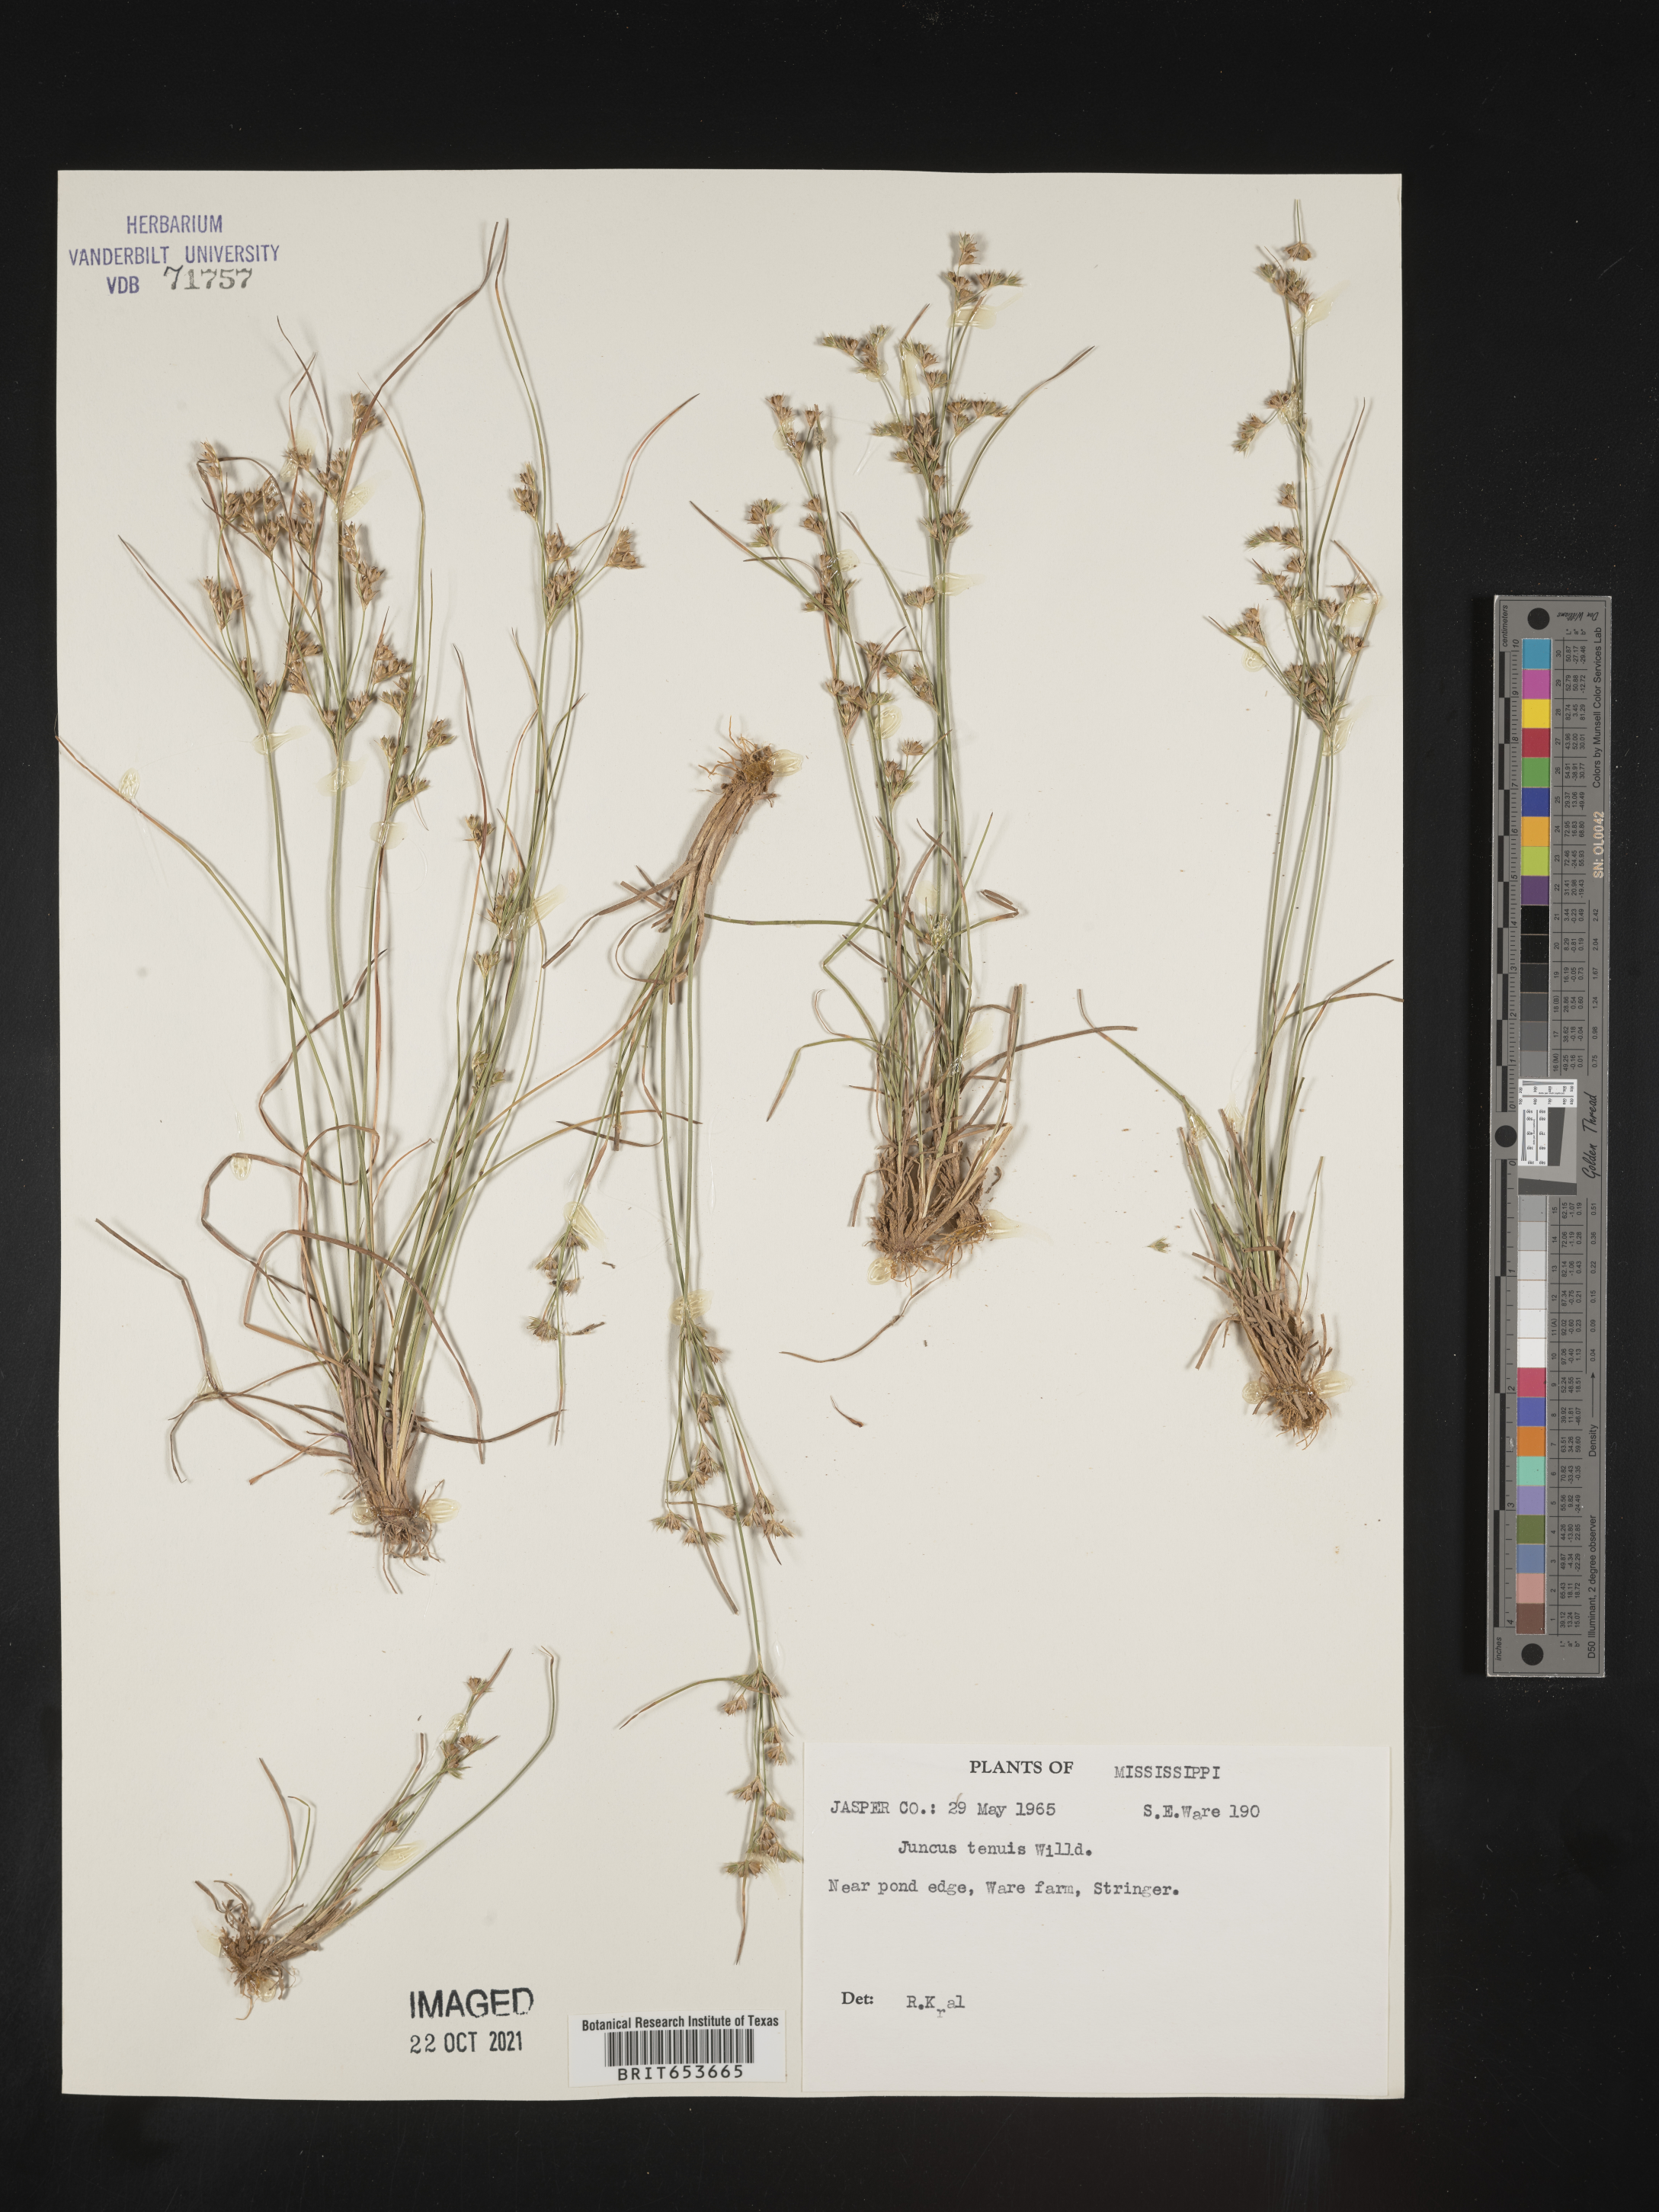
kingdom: Plantae
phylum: Tracheophyta
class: Liliopsida
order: Poales
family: Juncaceae
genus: Juncus
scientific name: Juncus tenuis
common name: Slender rush
